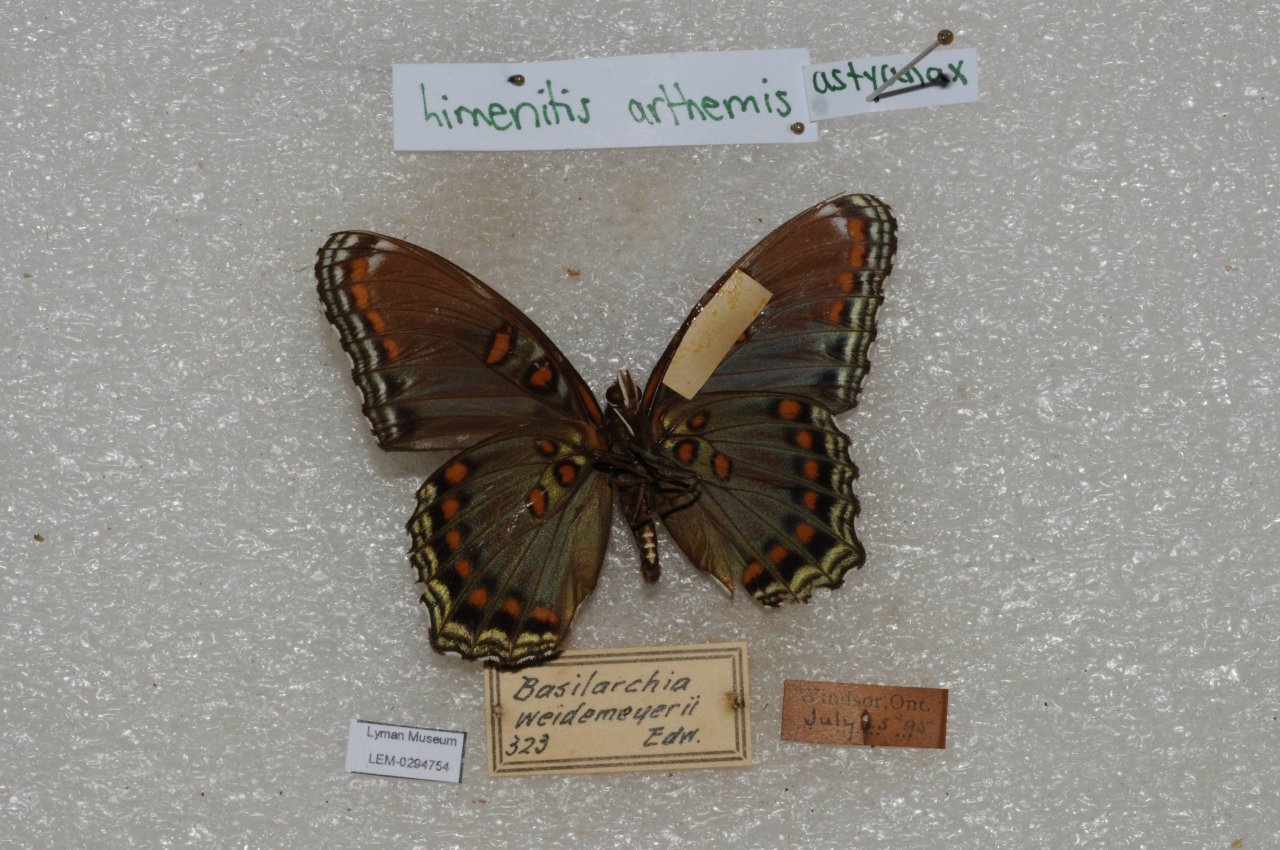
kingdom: Animalia
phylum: Arthropoda
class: Insecta
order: Lepidoptera
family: Nymphalidae
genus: Limenitis
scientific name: Limenitis astyanax
